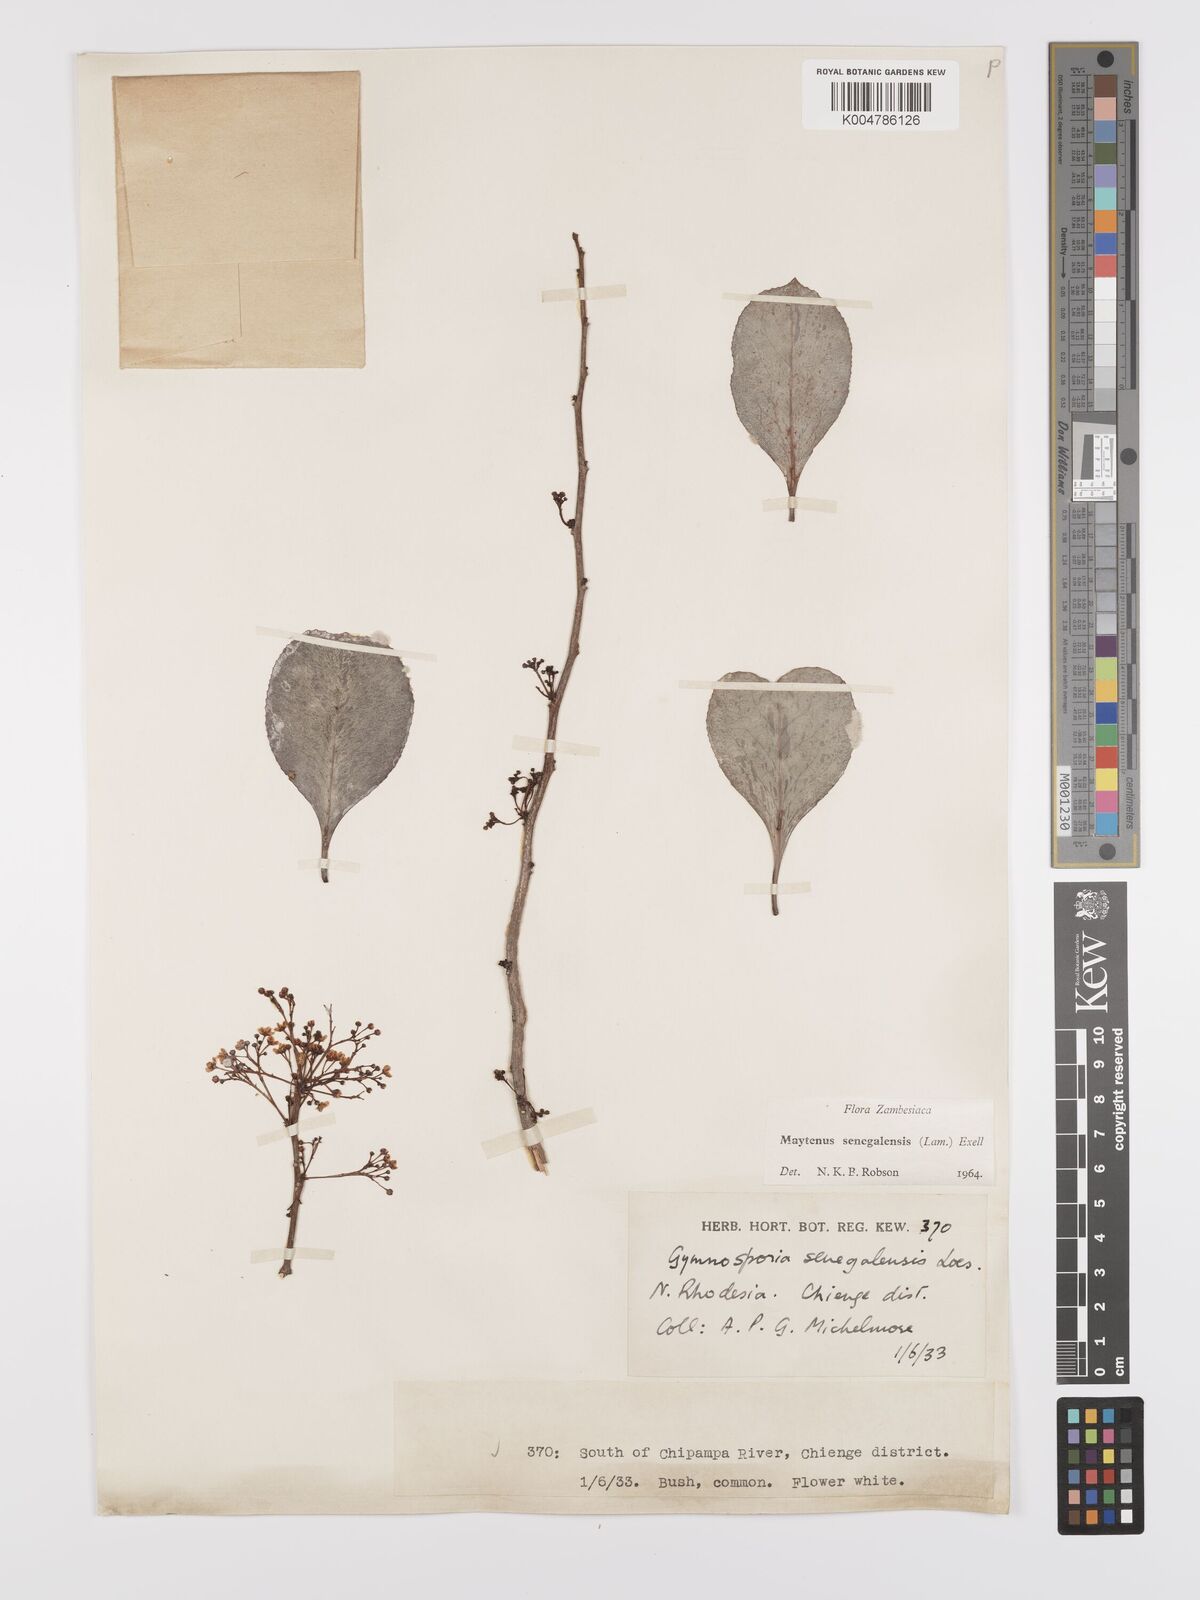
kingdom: Plantae
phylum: Tracheophyta
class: Magnoliopsida
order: Celastrales
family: Celastraceae
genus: Gymnosporia
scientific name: Gymnosporia senegalensis
